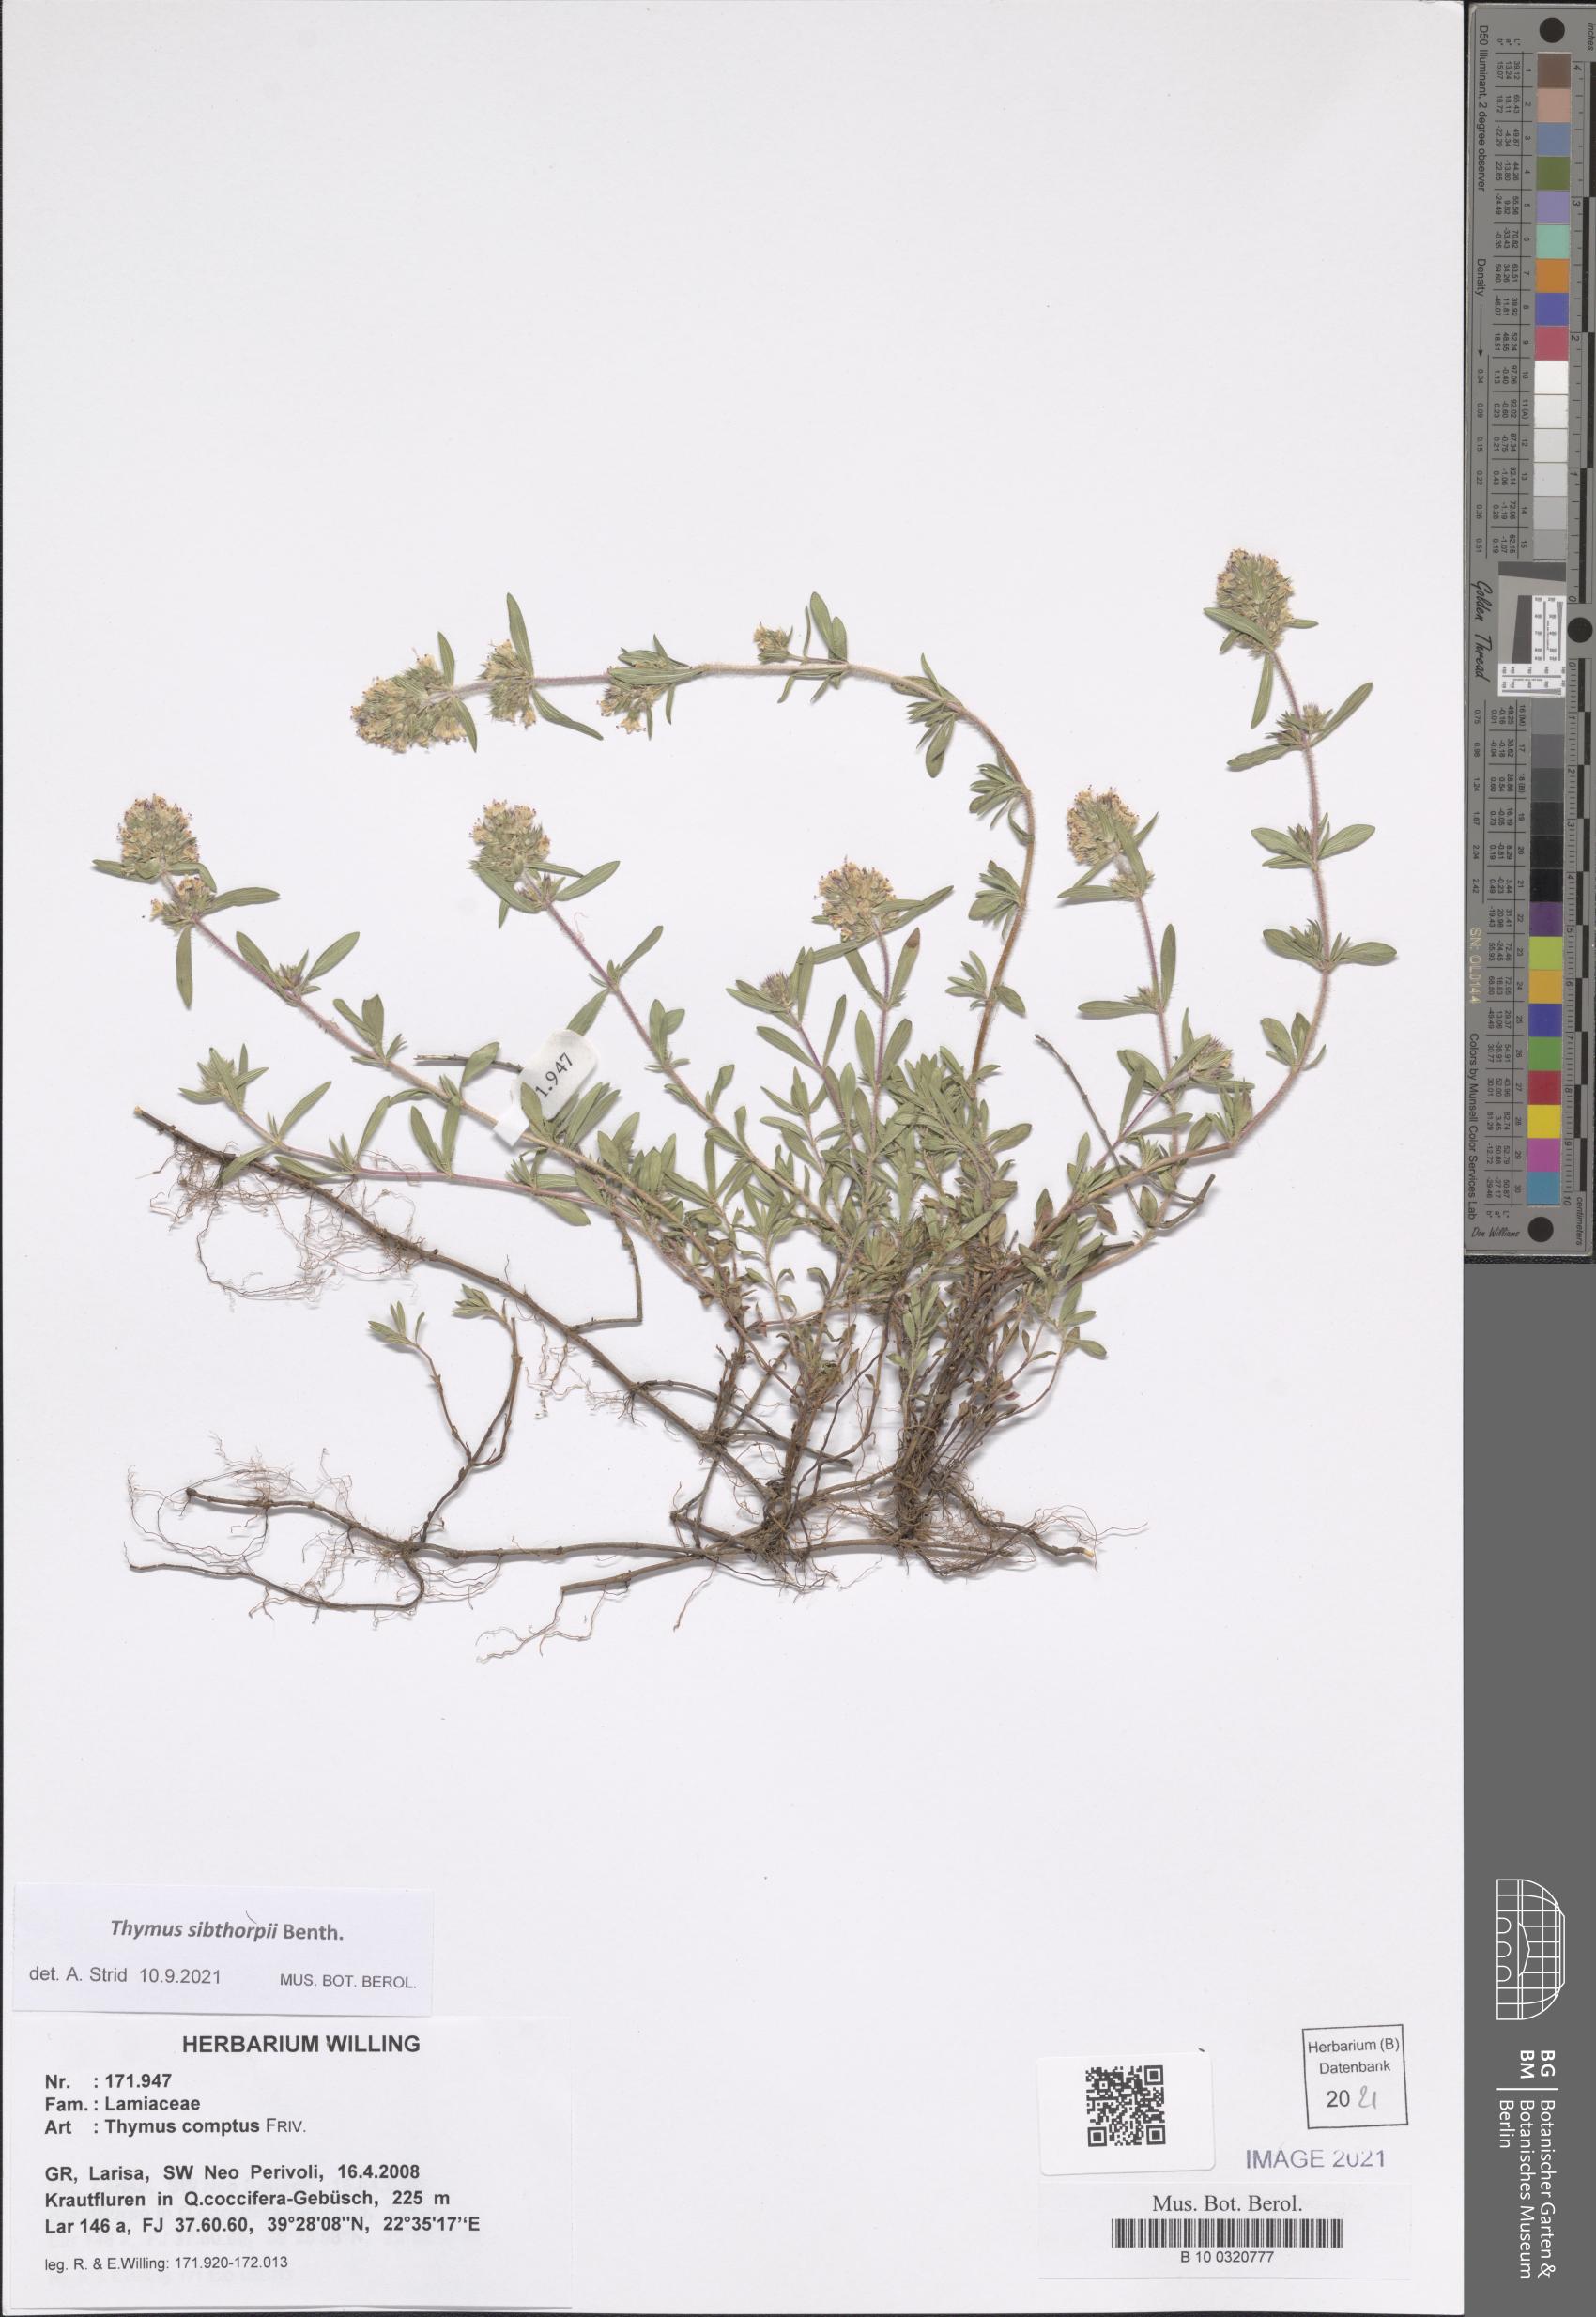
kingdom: Plantae
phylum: Tracheophyta
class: Magnoliopsida
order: Lamiales
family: Lamiaceae
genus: Thymus
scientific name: Thymus sibthorpii
